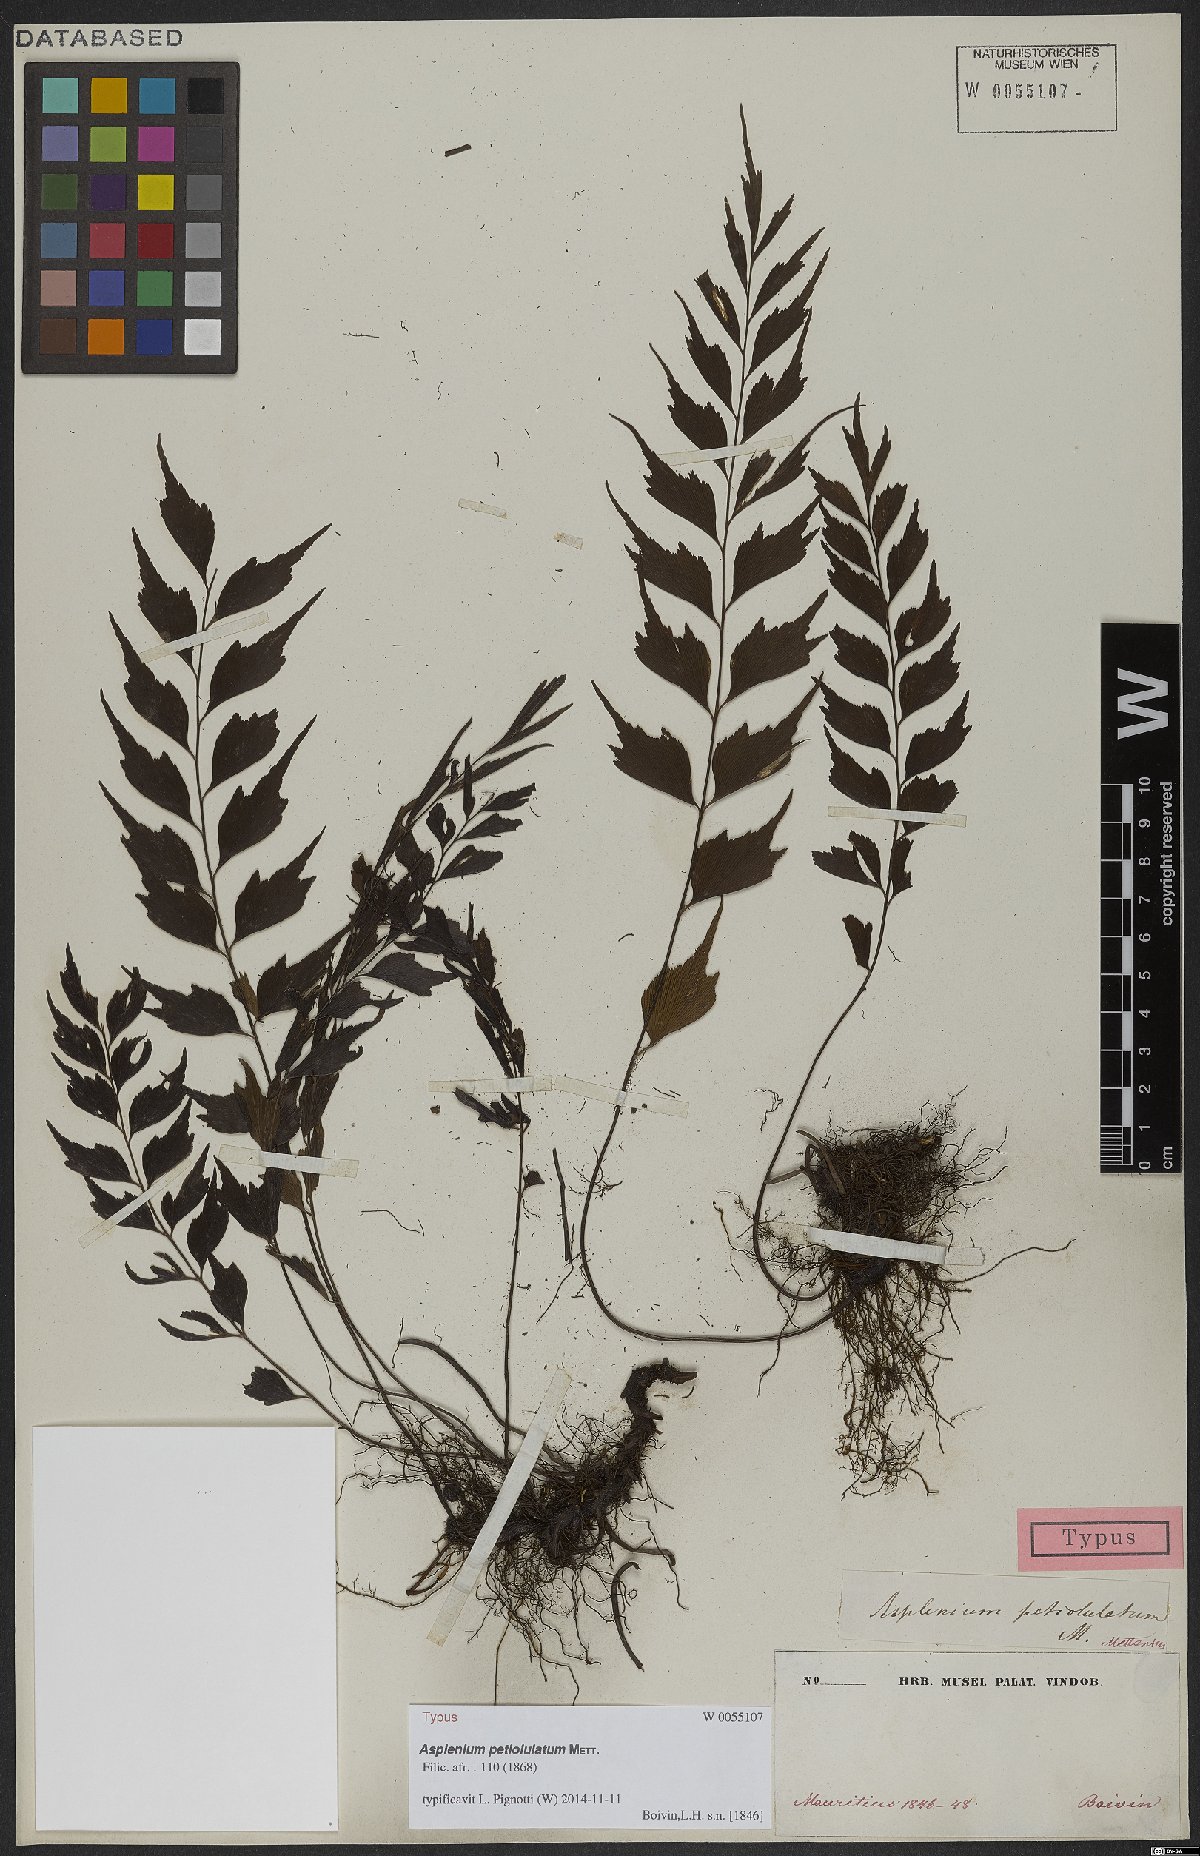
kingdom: Plantae
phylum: Tracheophyta
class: Polypodiopsida
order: Polypodiales
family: Aspleniaceae
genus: Asplenium
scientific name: Asplenium petiolulatum
